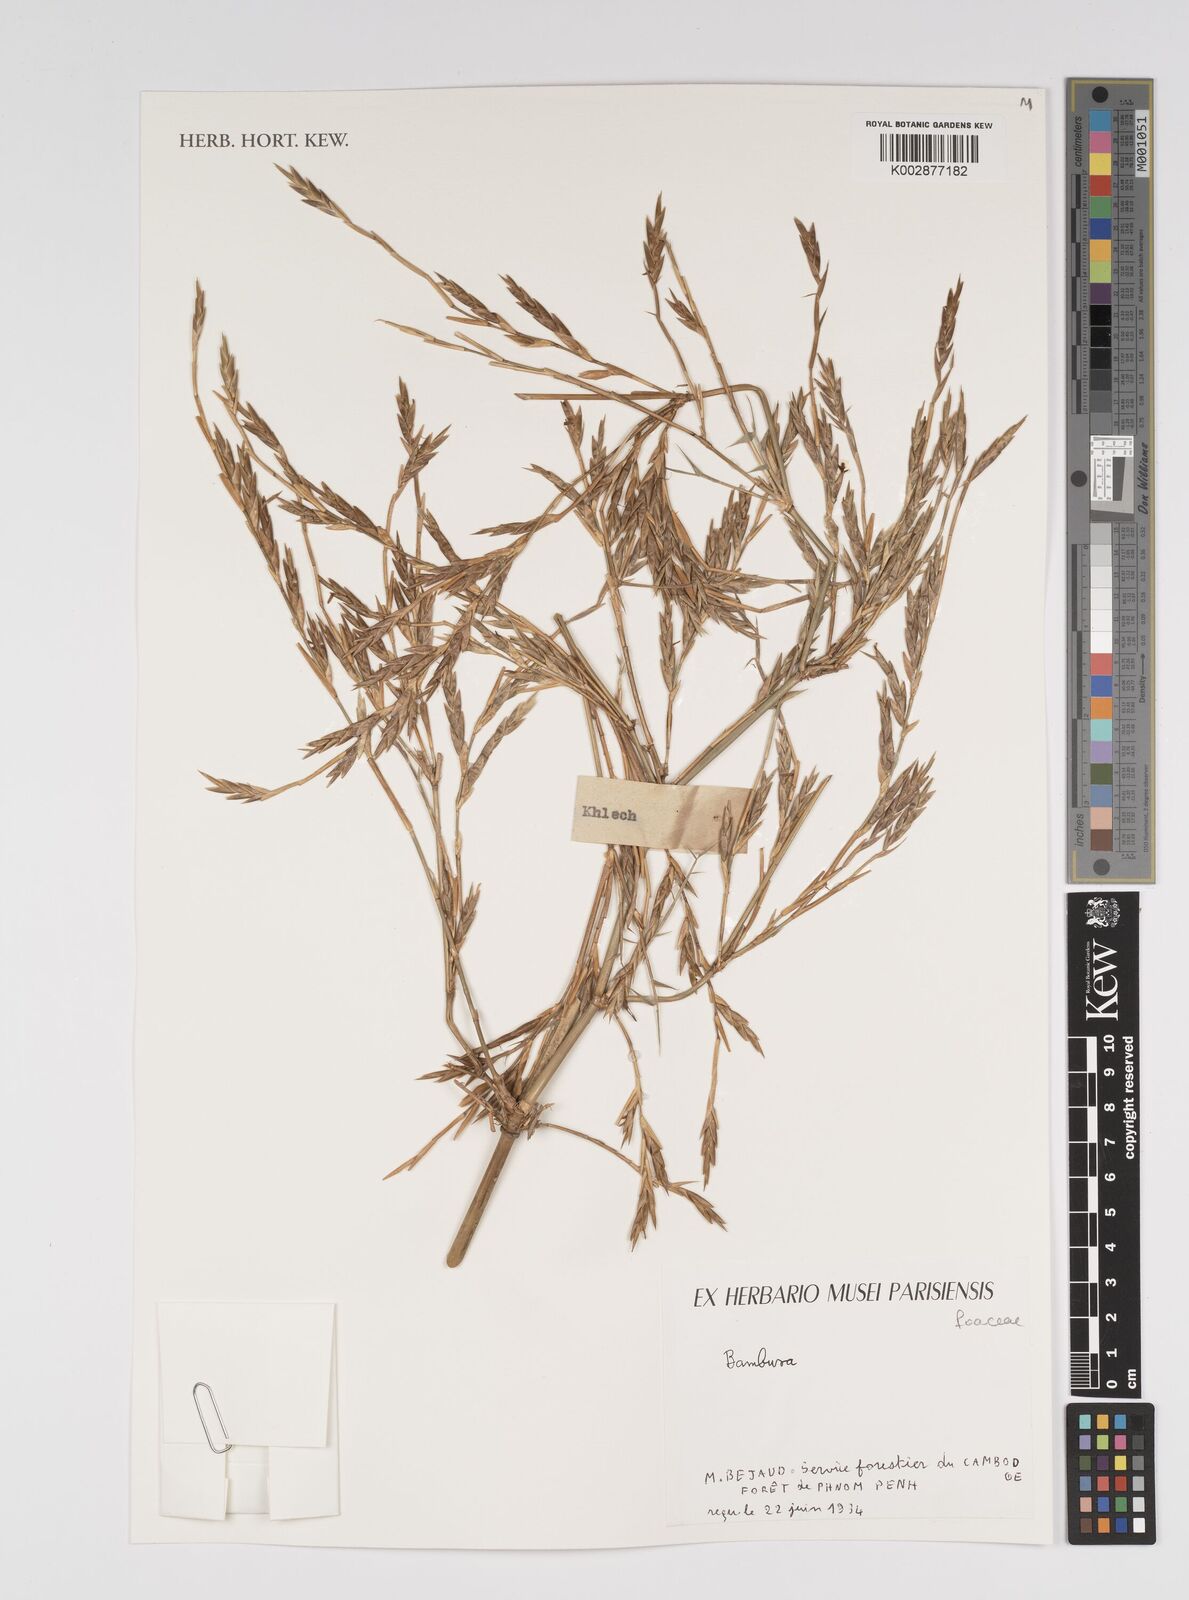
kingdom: Plantae
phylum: Tracheophyta
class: Liliopsida
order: Poales
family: Poaceae
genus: Bambusa
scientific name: Bambusa
